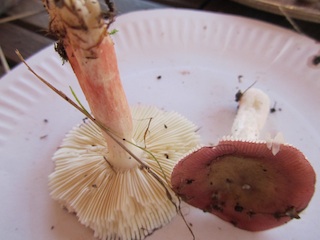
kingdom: Fungi
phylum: Basidiomycota
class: Agaricomycetes
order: Russulales
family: Russulaceae
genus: Russula
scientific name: Russula nitida
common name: året skørhat
